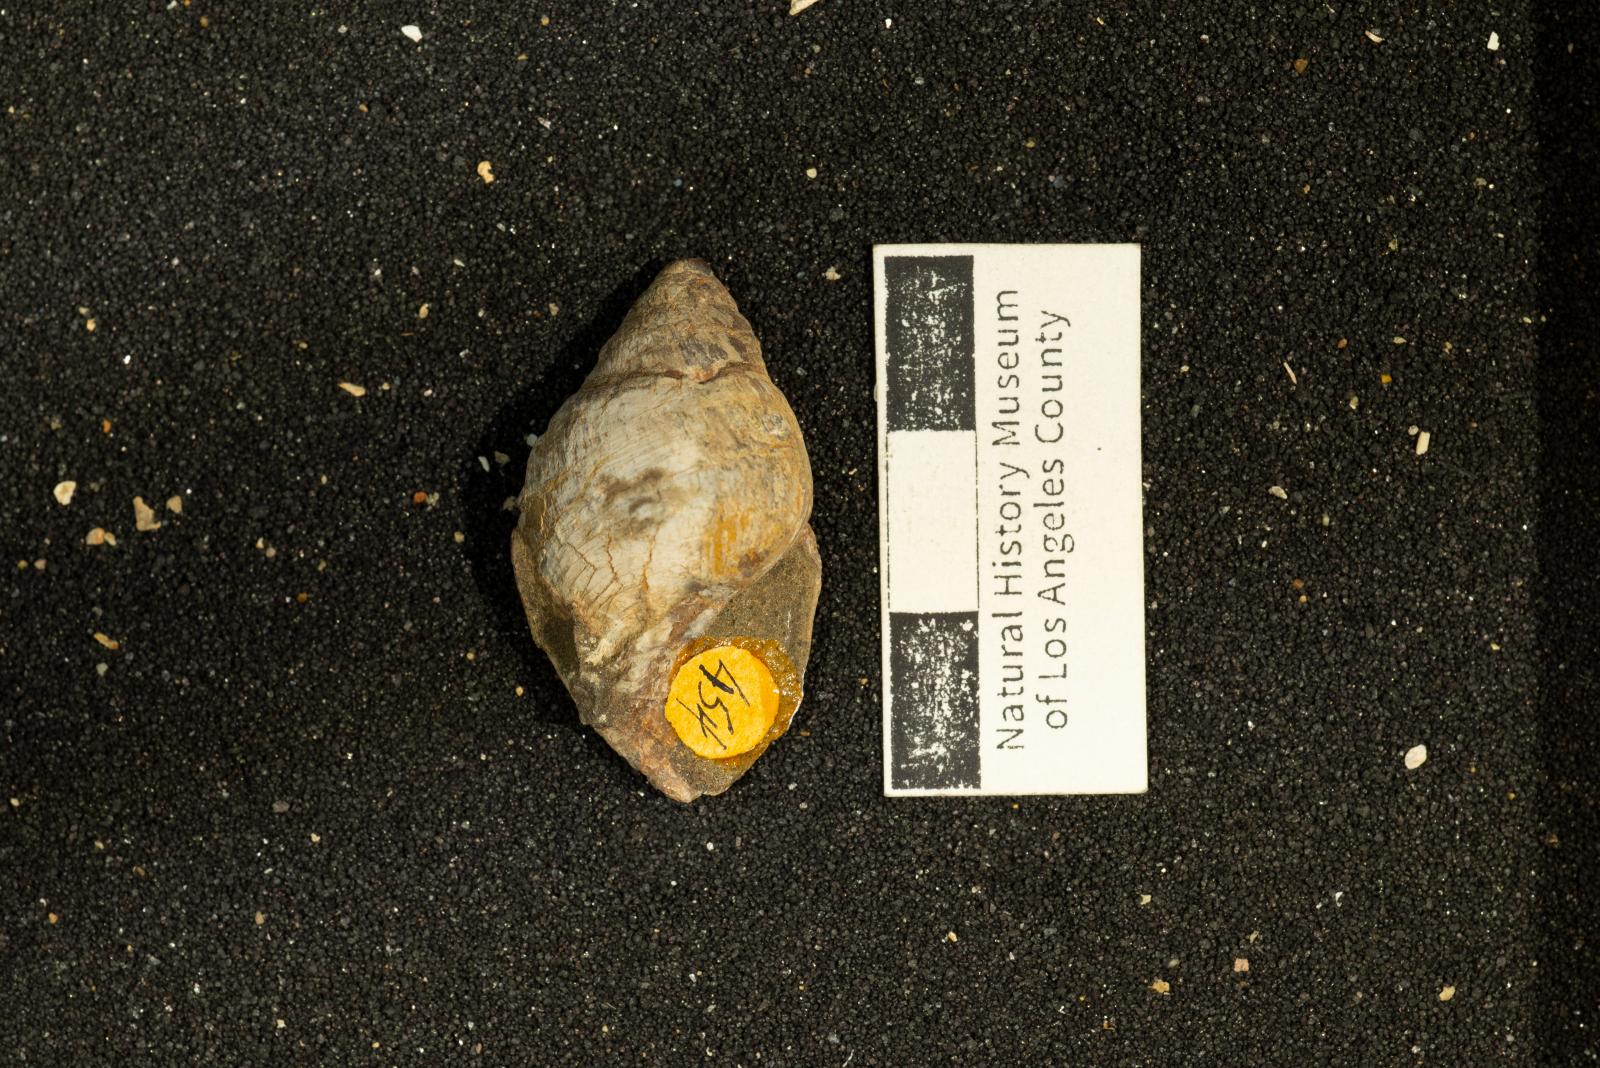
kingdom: Animalia
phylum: Mollusca
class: Gastropoda
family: Pseudomelaniidae
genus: Paosia
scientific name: Paosia Acteonina colusaensis
